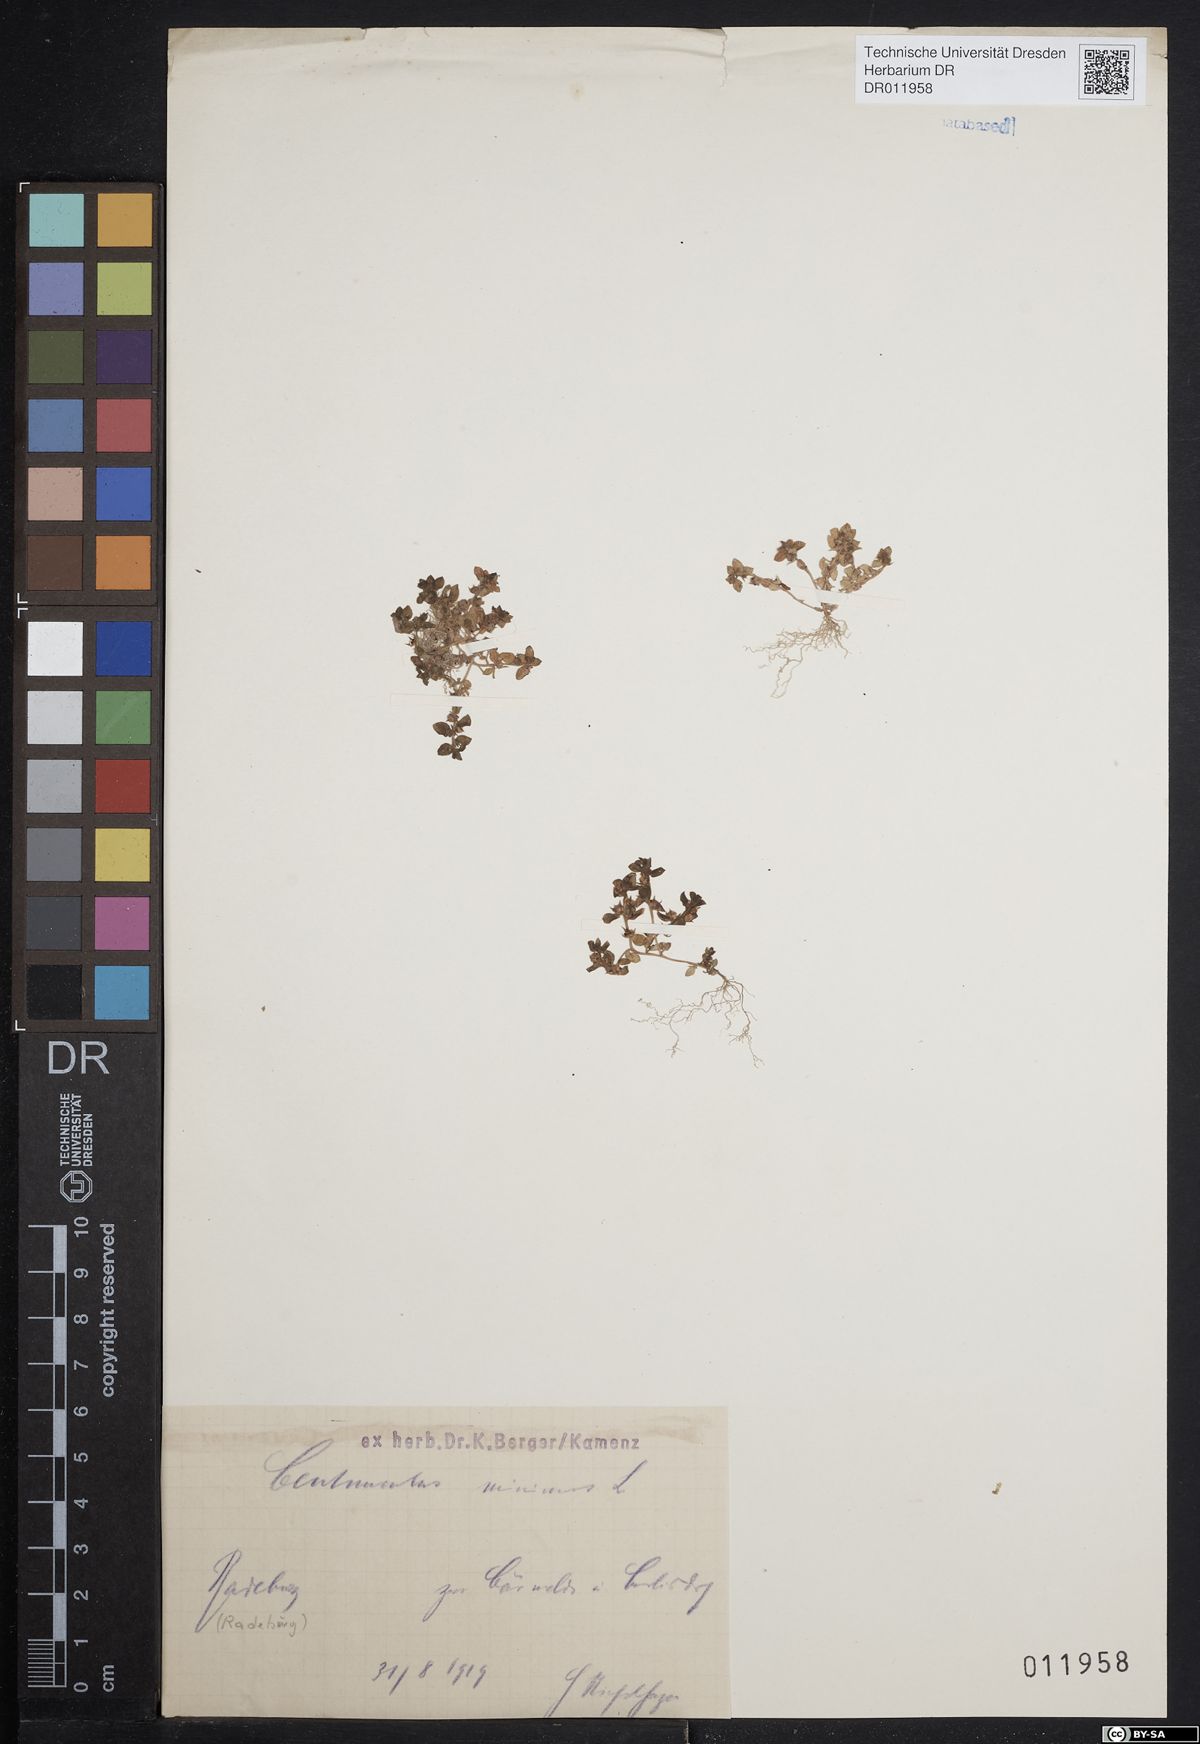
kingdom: Plantae
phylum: Tracheophyta
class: Magnoliopsida
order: Ericales
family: Primulaceae
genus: Lysimachia
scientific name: Lysimachia minima
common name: Chaffweed
